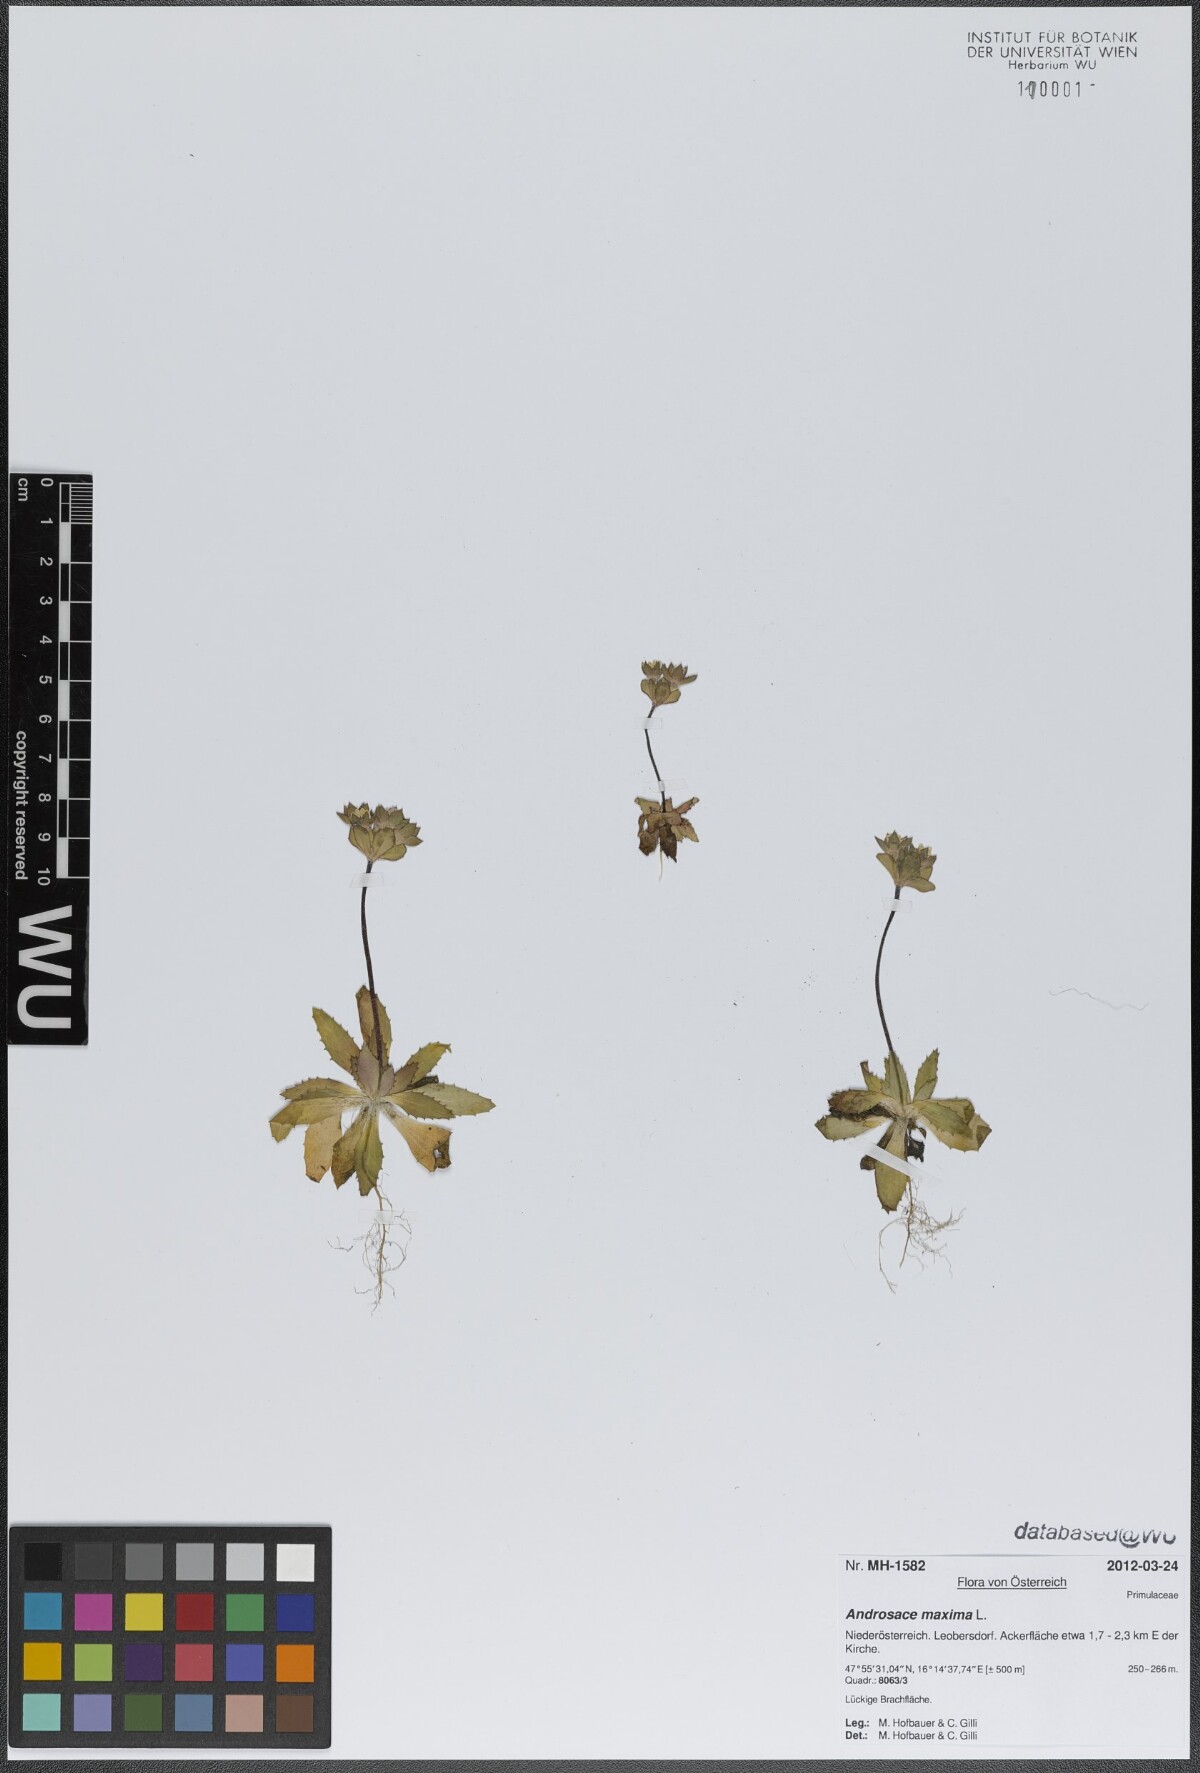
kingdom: Plantae
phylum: Tracheophyta
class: Magnoliopsida
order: Ericales
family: Primulaceae
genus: Androsace
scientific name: Androsace maxima
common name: Annual androsace
